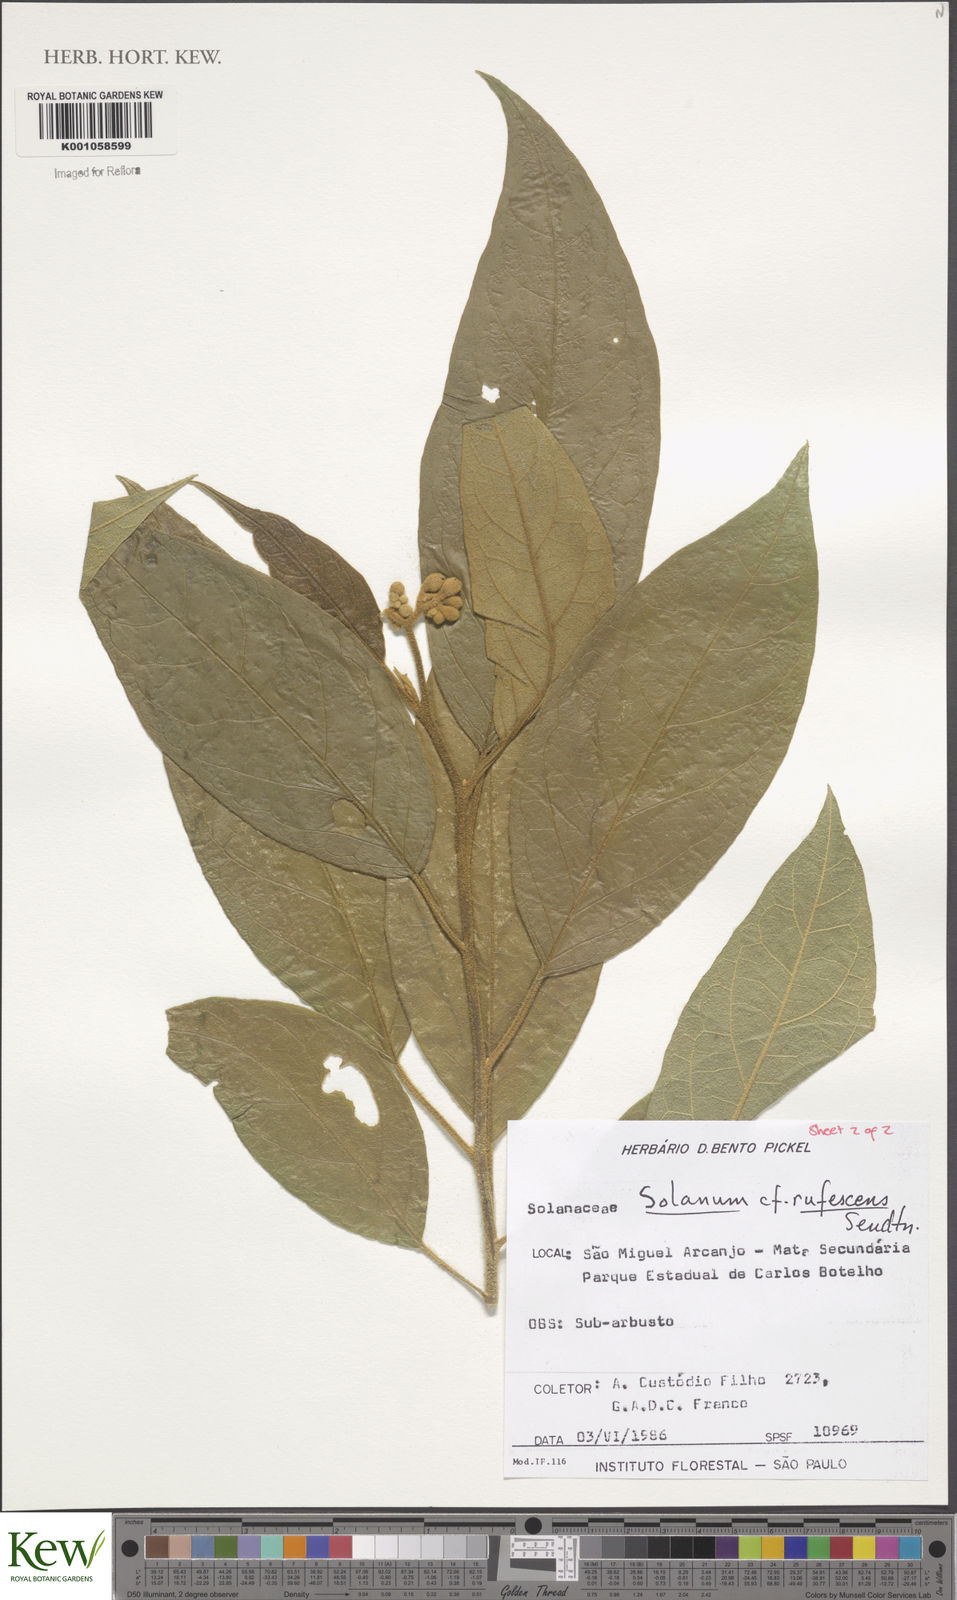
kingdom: Plantae
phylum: Tracheophyta
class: Magnoliopsida
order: Solanales
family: Solanaceae
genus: Solanum
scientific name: Solanum rufescens
